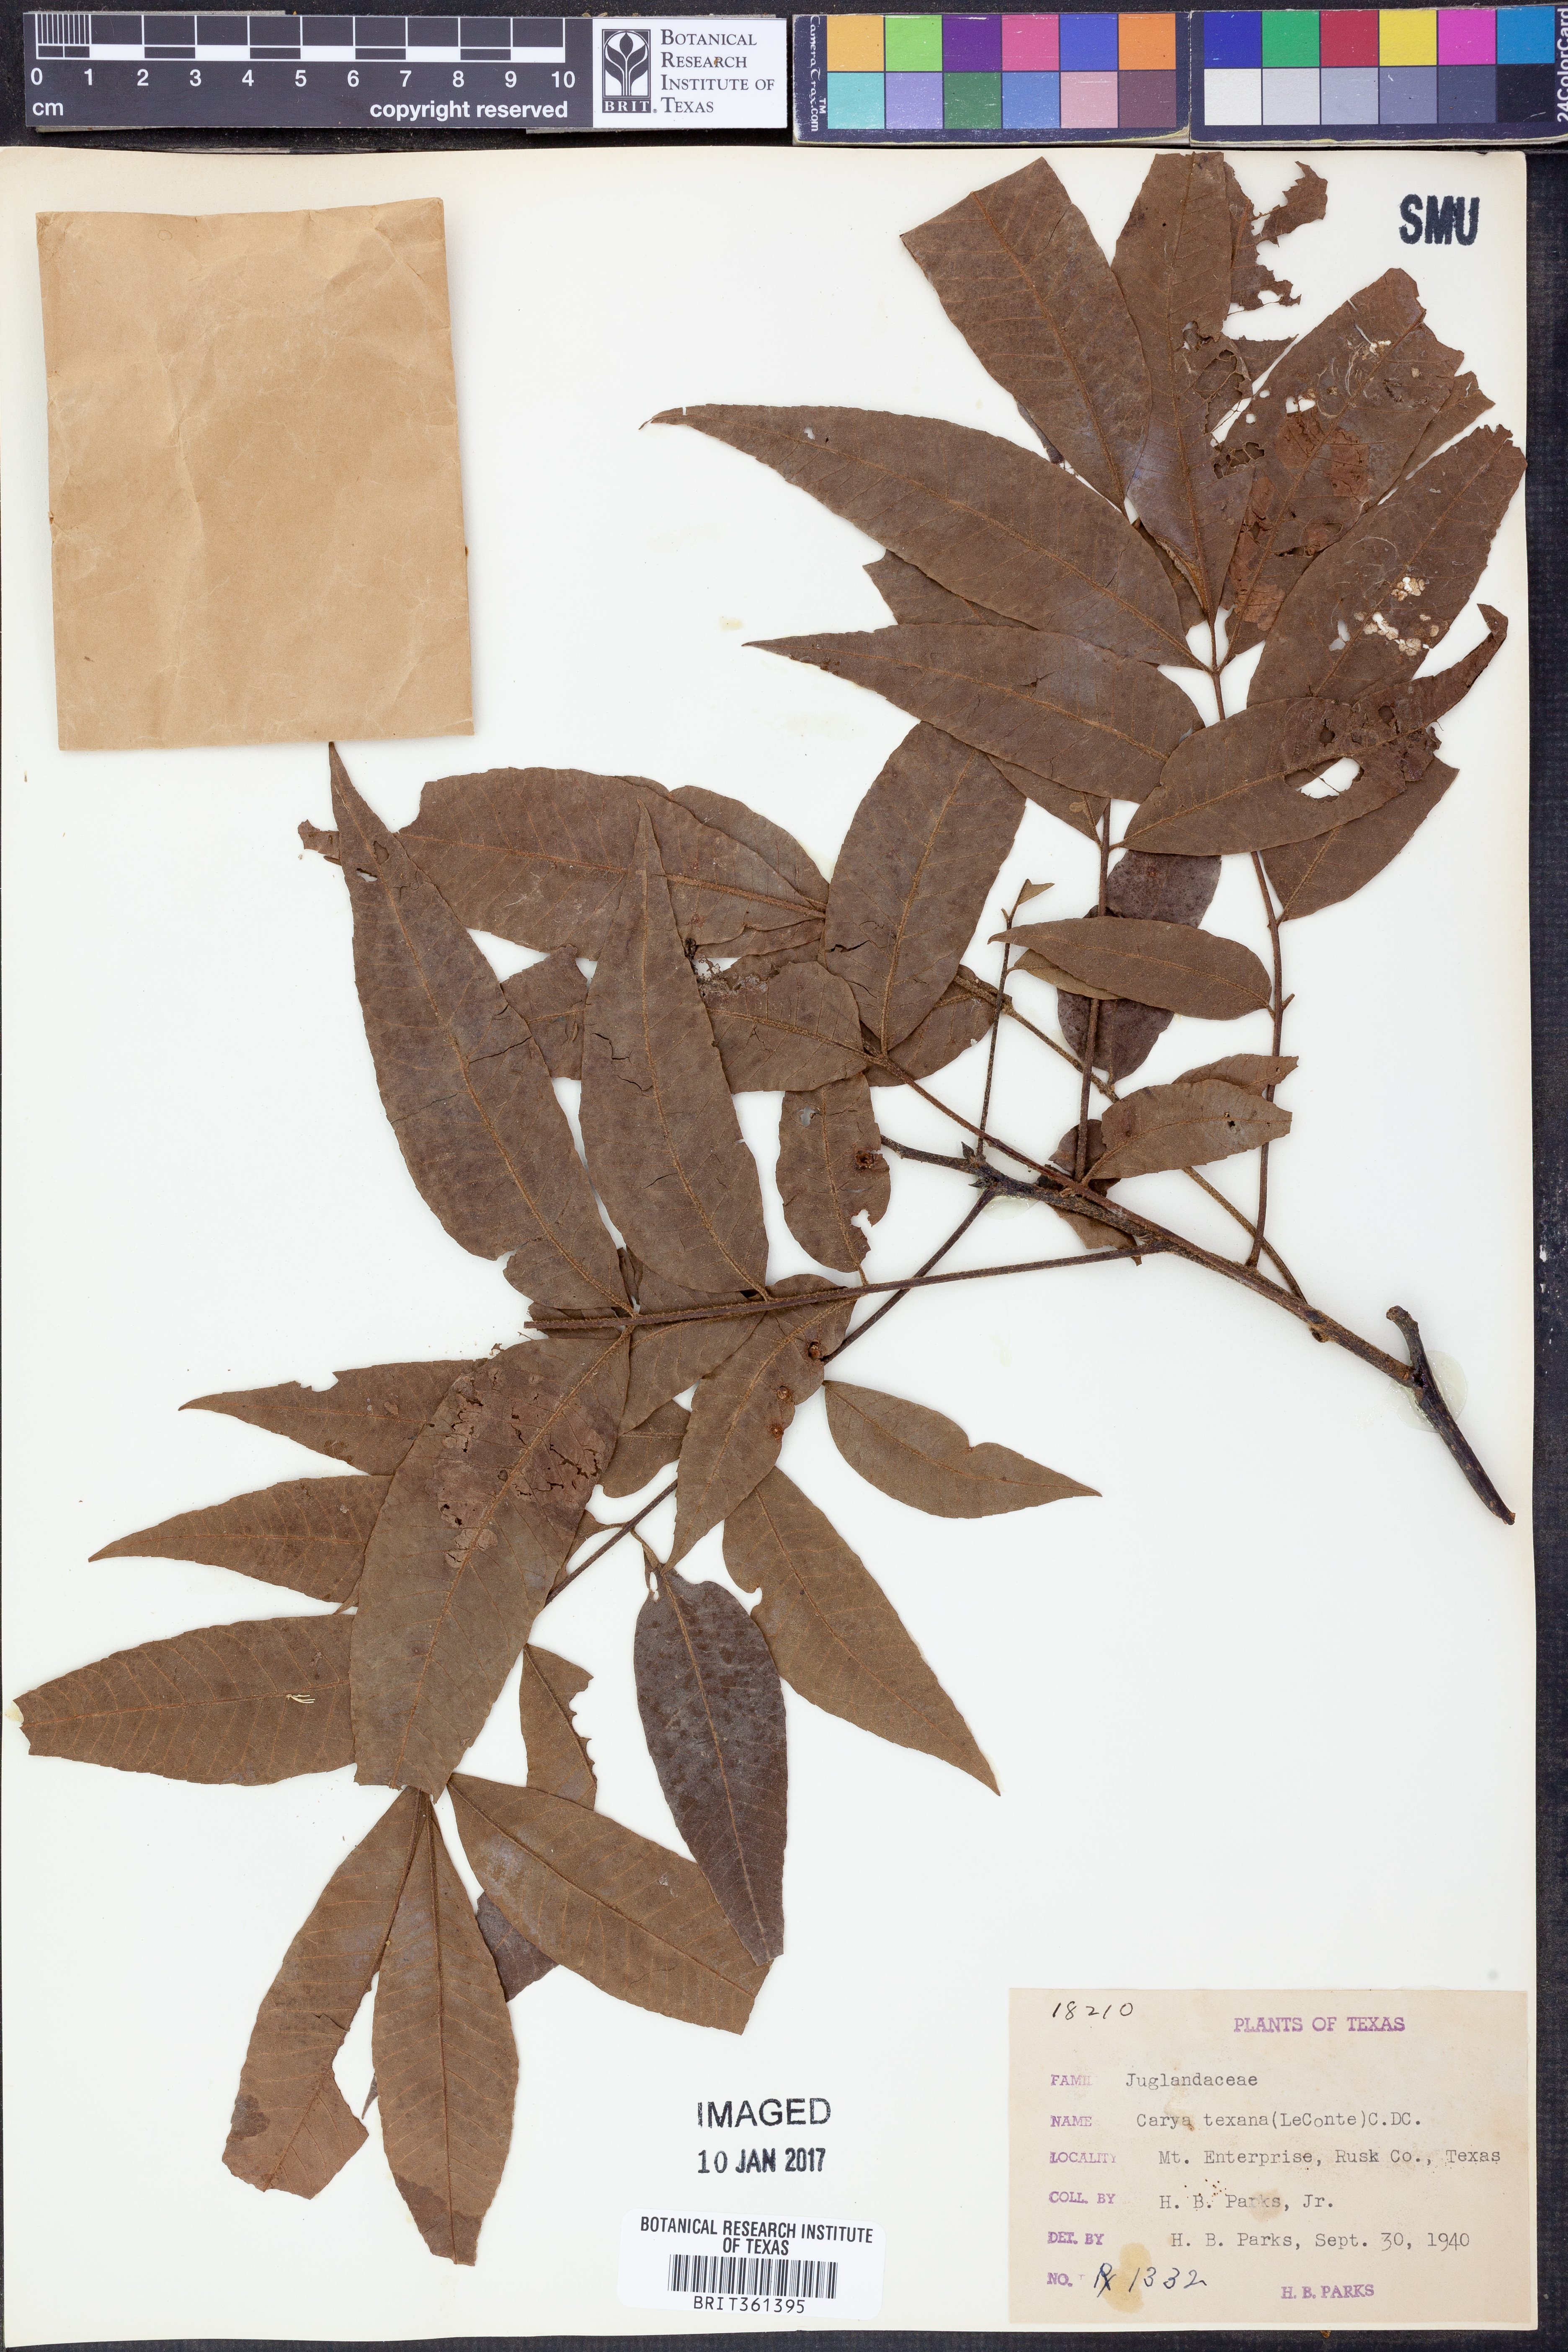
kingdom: Plantae
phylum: Tracheophyta
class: Magnoliopsida
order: Fagales
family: Juglandaceae
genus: Carya
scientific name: Carya texana
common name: Black hickory
